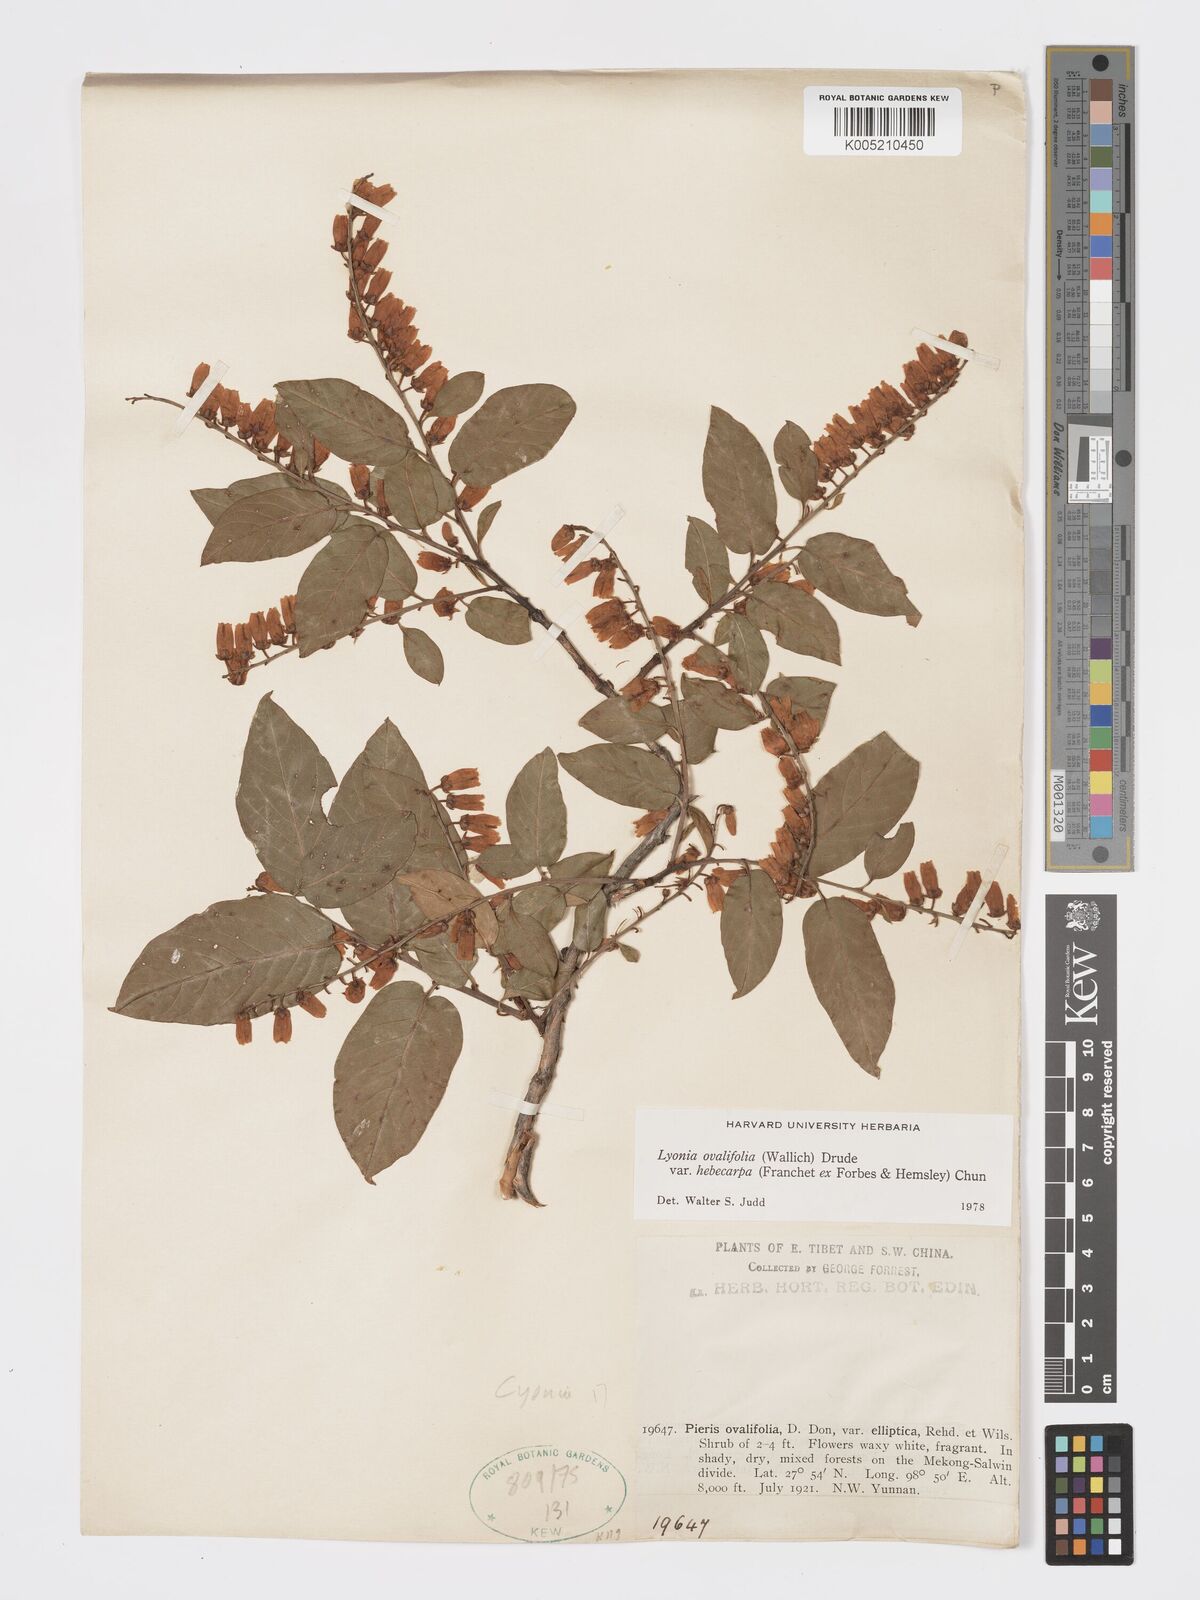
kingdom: Plantae
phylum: Tracheophyta
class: Magnoliopsida
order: Ericales
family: Ericaceae
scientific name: Ericaceae
